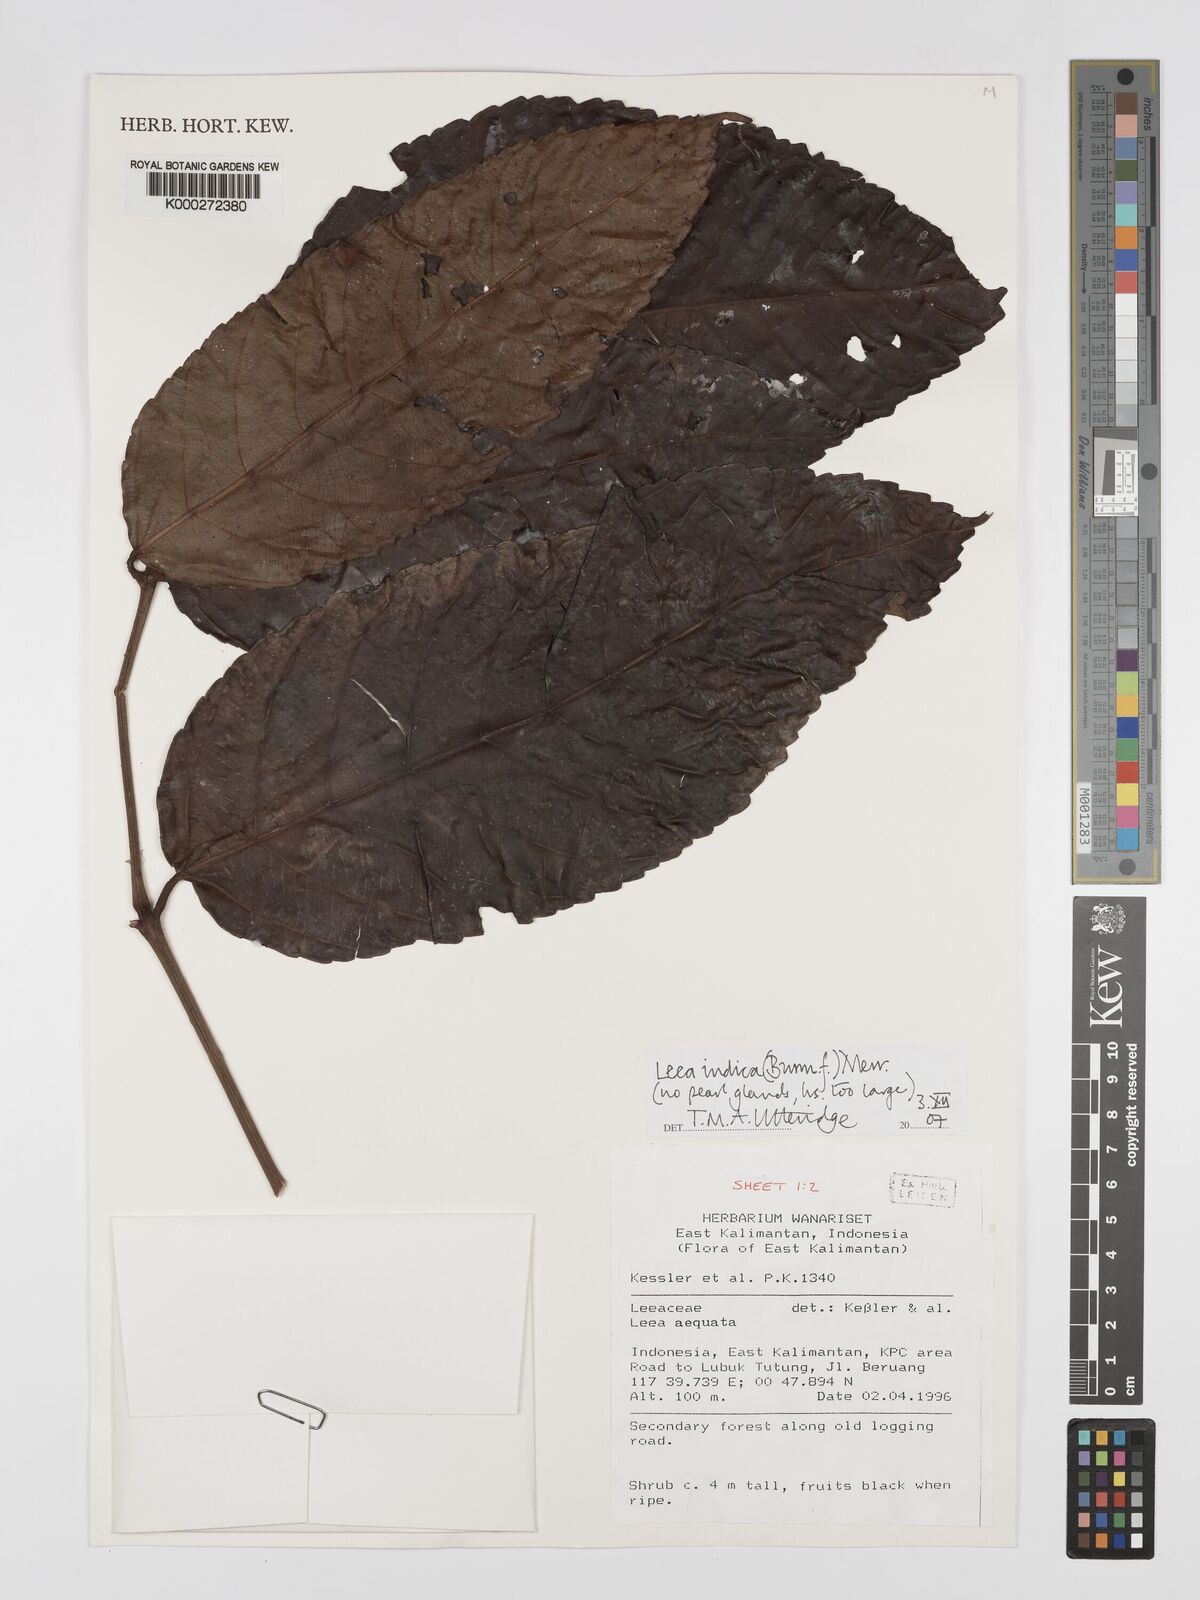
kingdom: Plantae
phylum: Tracheophyta
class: Magnoliopsida
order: Vitales
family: Vitaceae
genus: Leea
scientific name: Leea indica
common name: Bandicoot-berry
